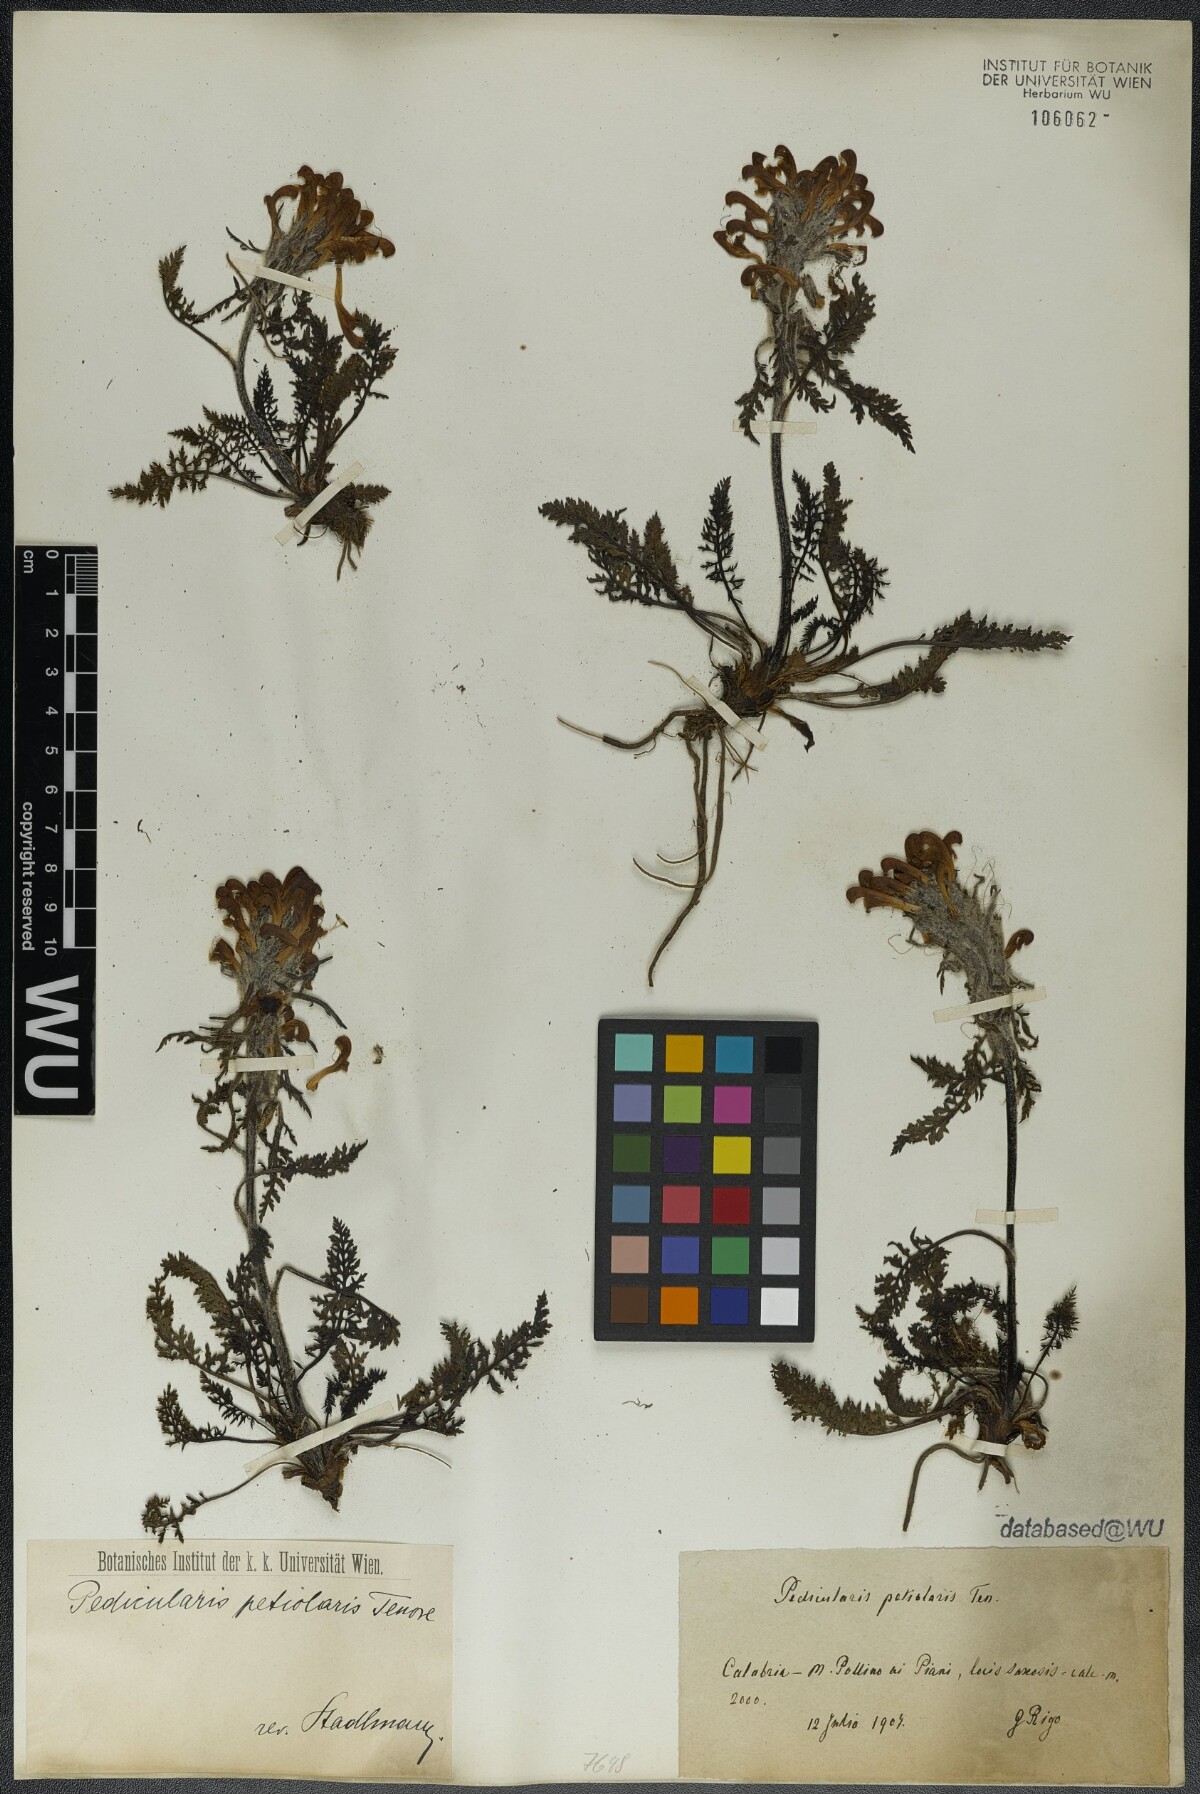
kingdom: Plantae
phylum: Tracheophyta
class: Magnoliopsida
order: Lamiales
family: Orobanchaceae
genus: Pedicularis
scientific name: Pedicularis petiolaris
